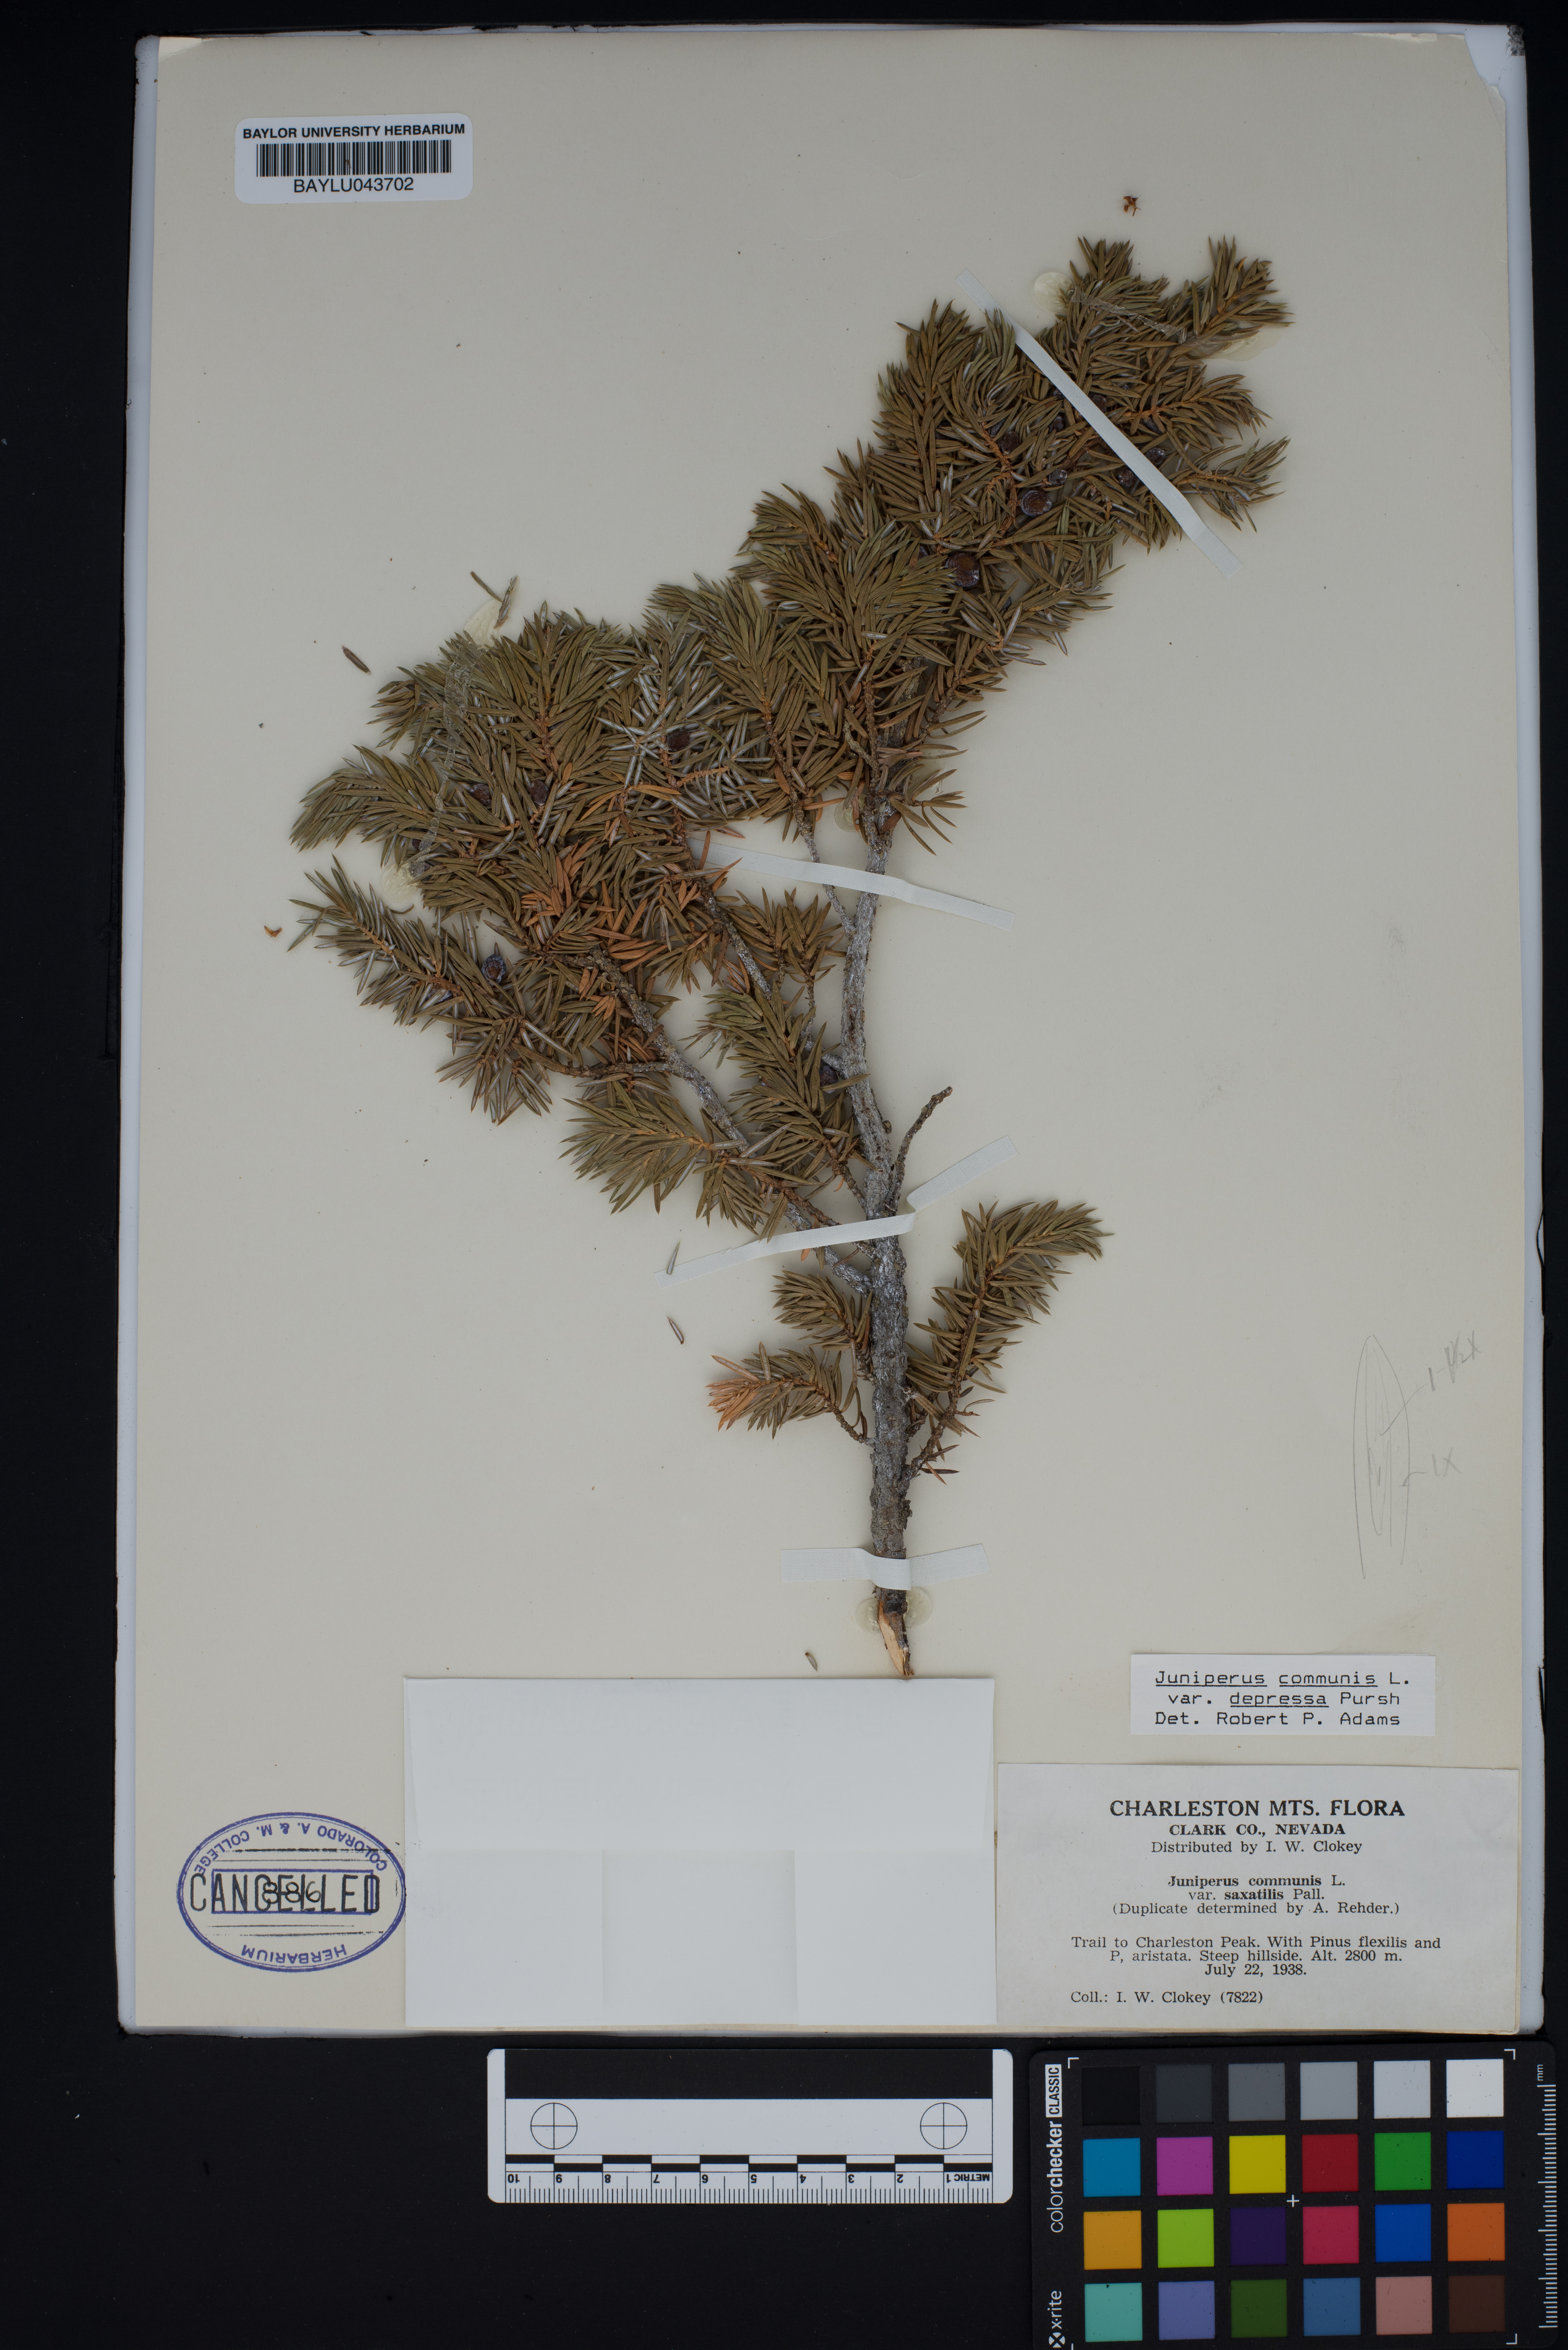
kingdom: Plantae
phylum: Tracheophyta
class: Pinopsida
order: Pinales
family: Cupressaceae
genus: Juniperus
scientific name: Juniperus communis
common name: Common juniper
